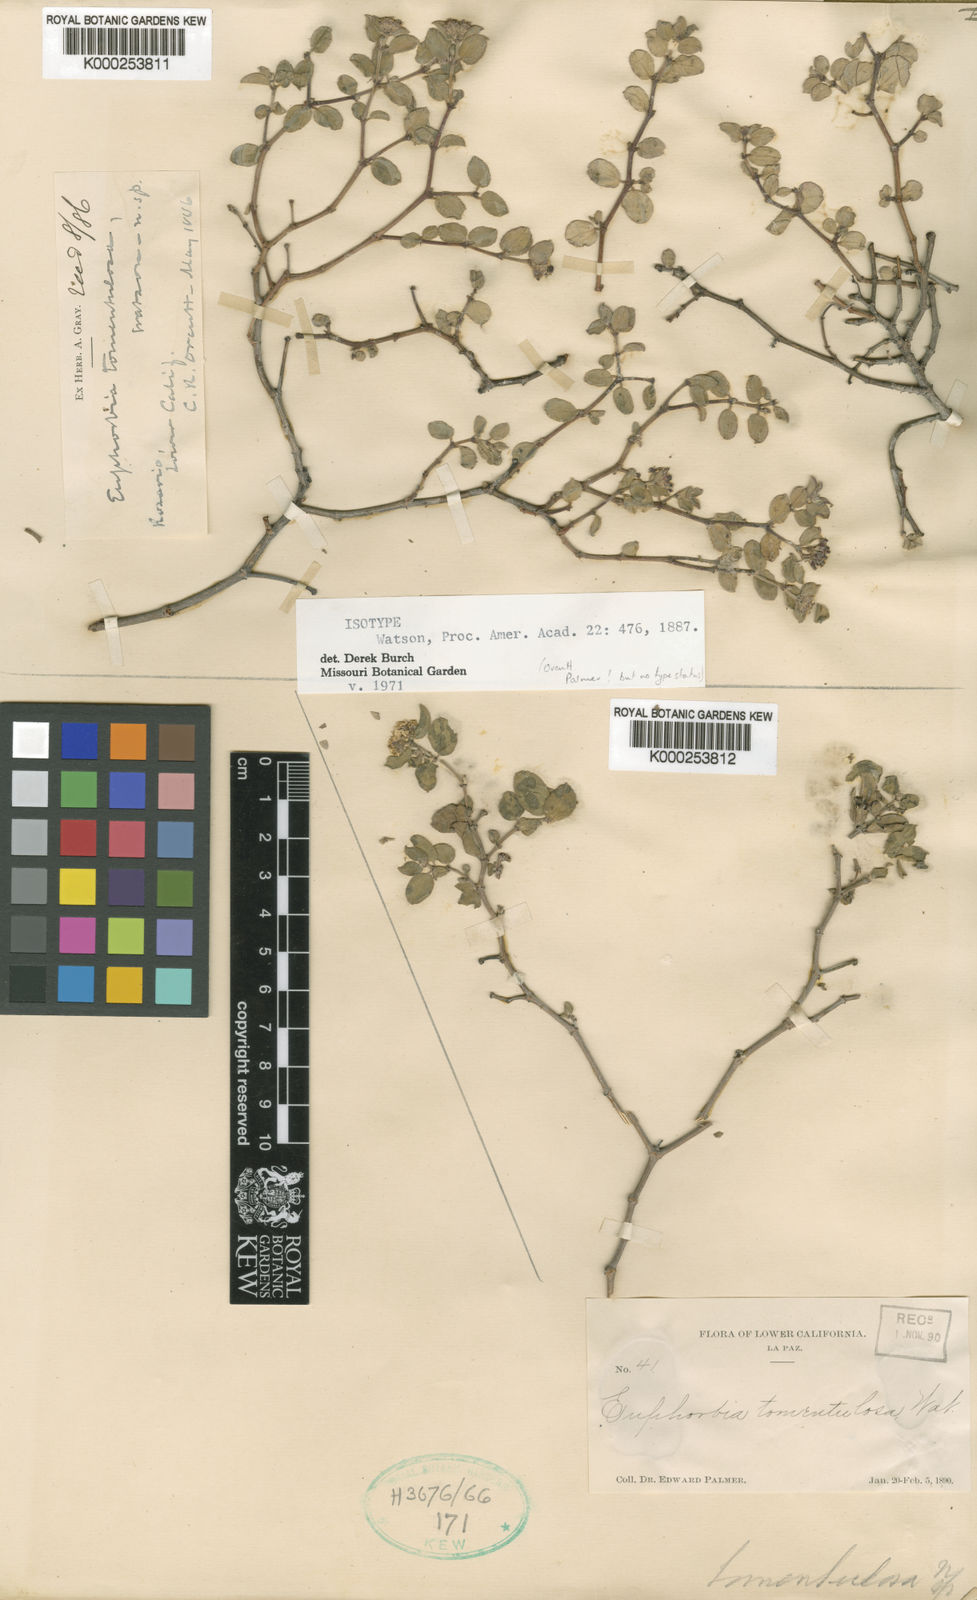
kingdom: Plantae
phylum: Tracheophyta
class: Magnoliopsida
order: Malpighiales
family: Euphorbiaceae
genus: Euphorbia
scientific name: Euphorbia tomentulosa
